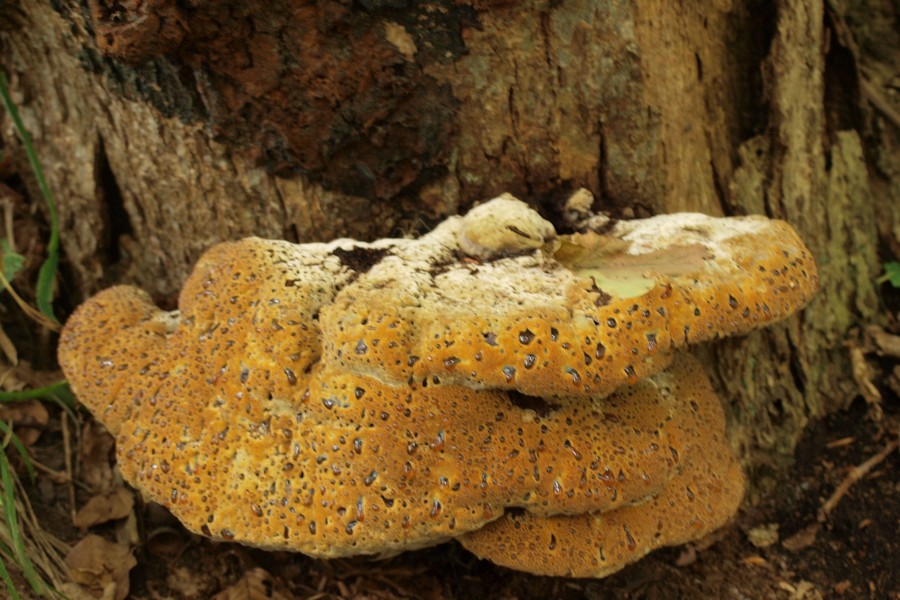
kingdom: Fungi
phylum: Basidiomycota
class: Agaricomycetes
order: Hymenochaetales
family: Hymenochaetaceae
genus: Pseudoinonotus
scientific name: Pseudoinonotus dryadeus
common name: ege-spejlporesvamp
